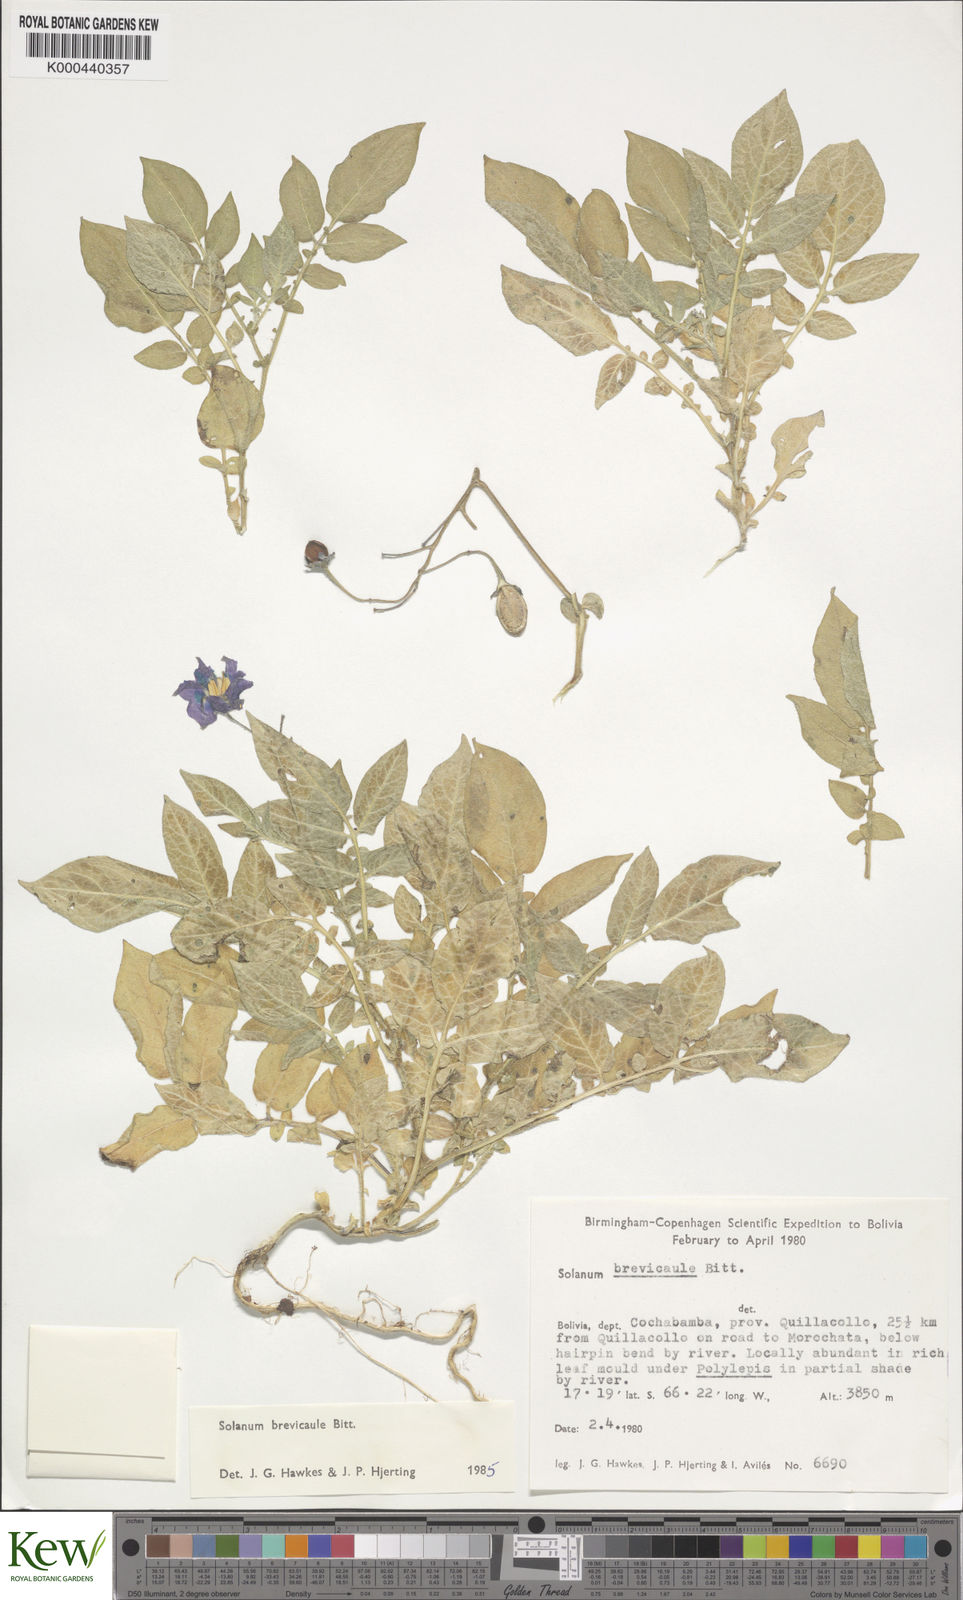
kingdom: Plantae
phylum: Tracheophyta
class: Magnoliopsida
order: Solanales
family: Solanaceae
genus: Solanum
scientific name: Solanum brevicaule
